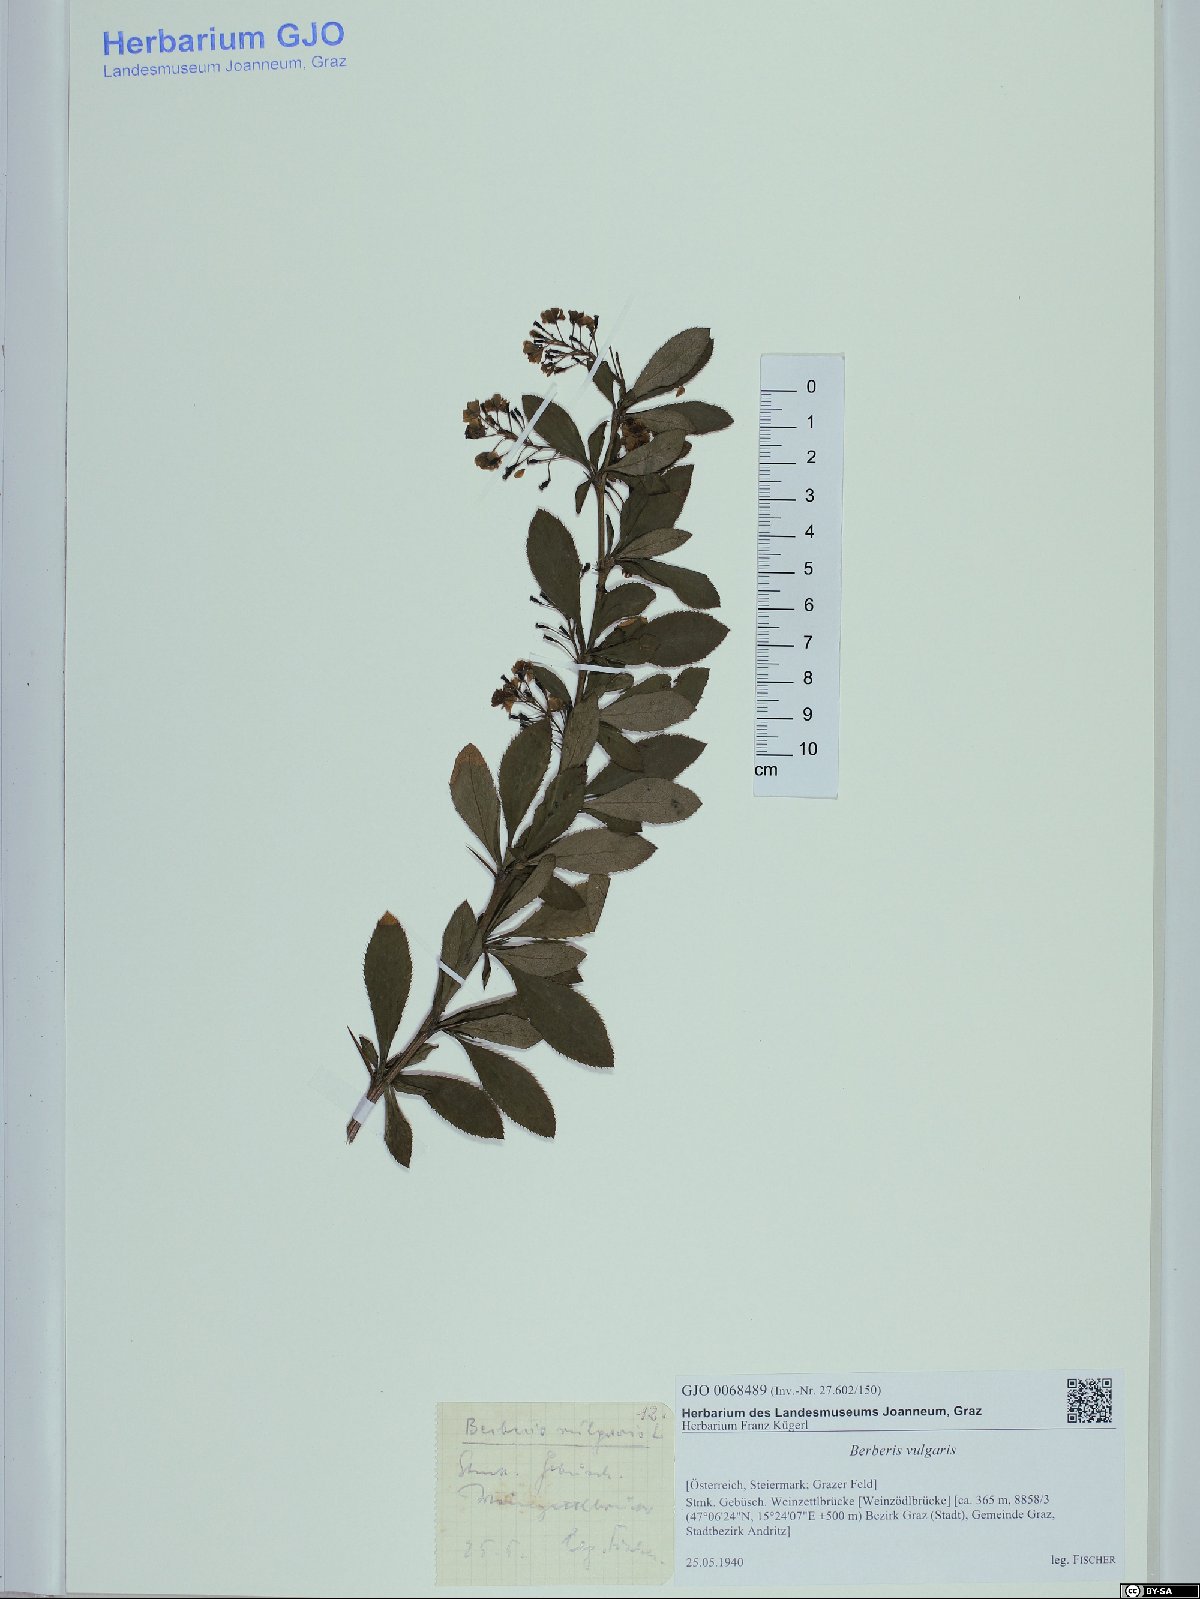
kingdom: Plantae
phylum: Tracheophyta
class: Magnoliopsida
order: Ranunculales
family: Berberidaceae
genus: Berberis
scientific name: Berberis vulgaris
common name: Barberry
